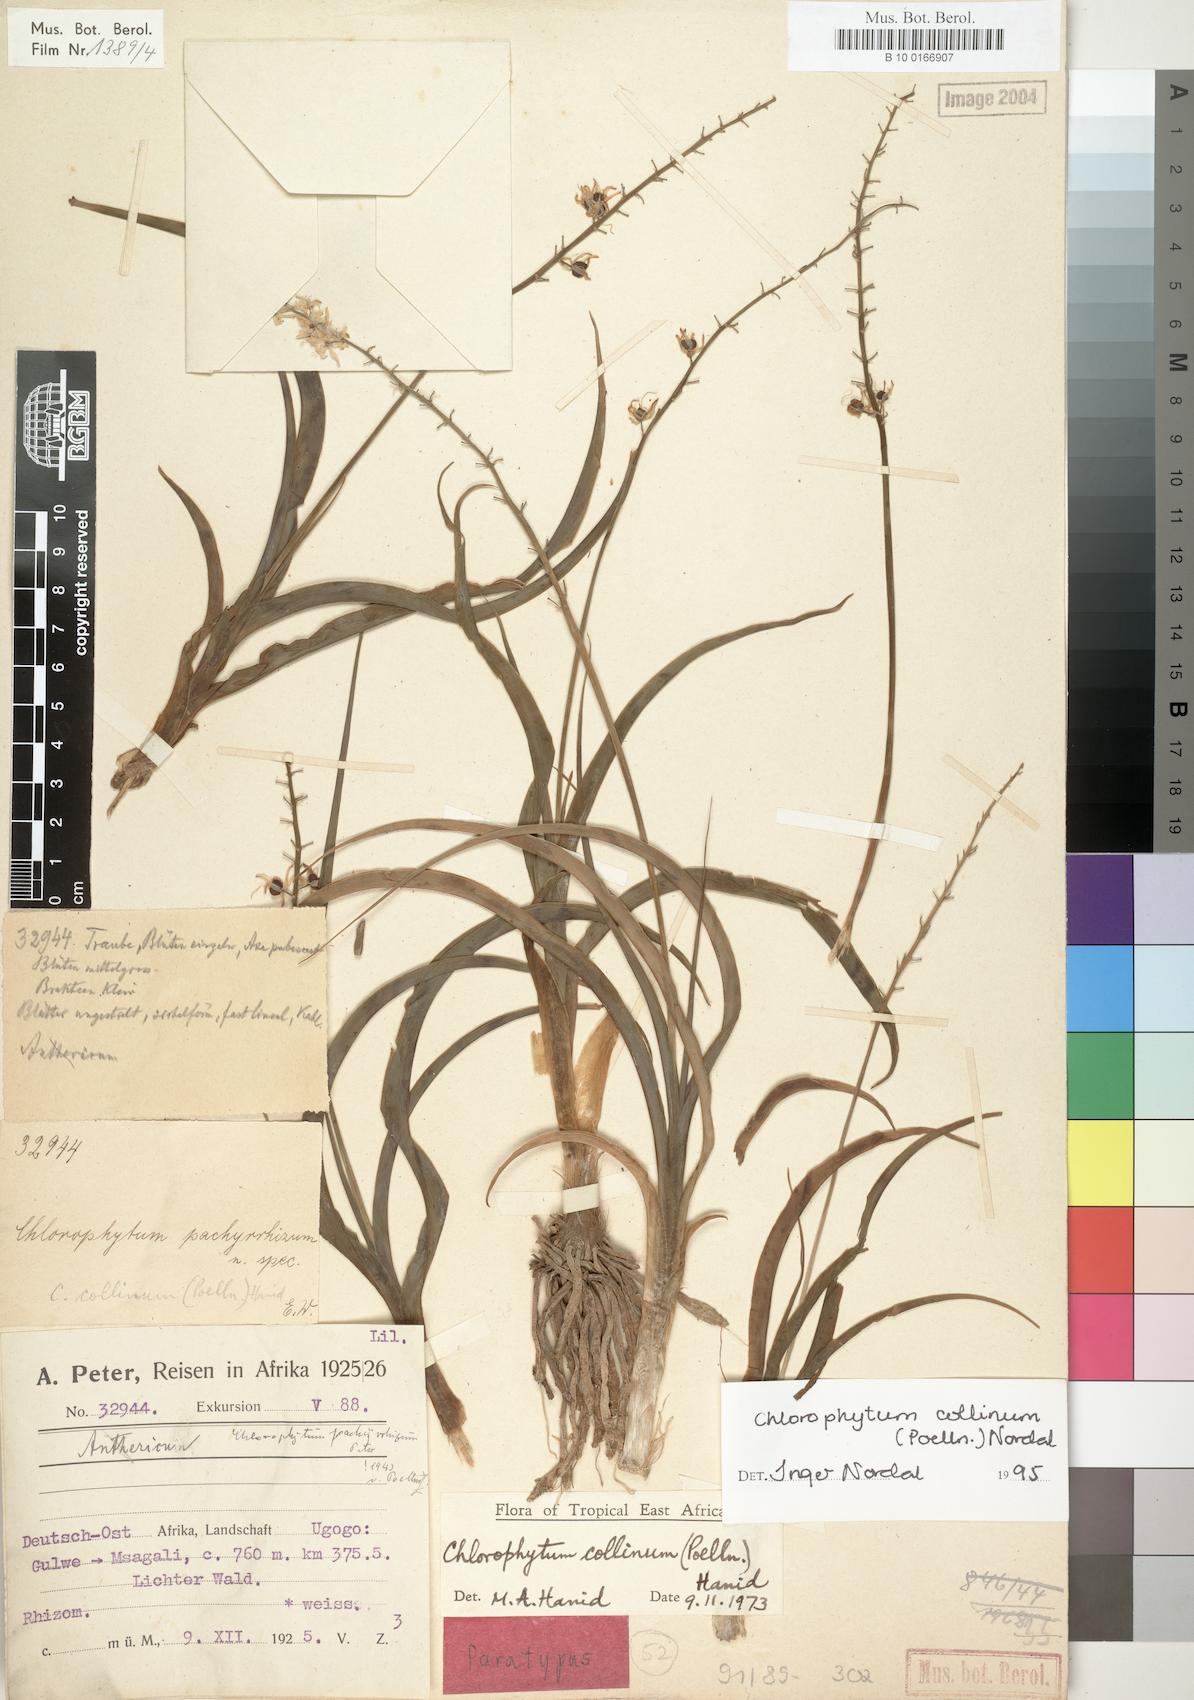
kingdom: Plantae
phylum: Tracheophyta
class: Liliopsida
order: Asparagales
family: Asparagaceae
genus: Chlorophytum
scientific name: Chlorophytum collinum
